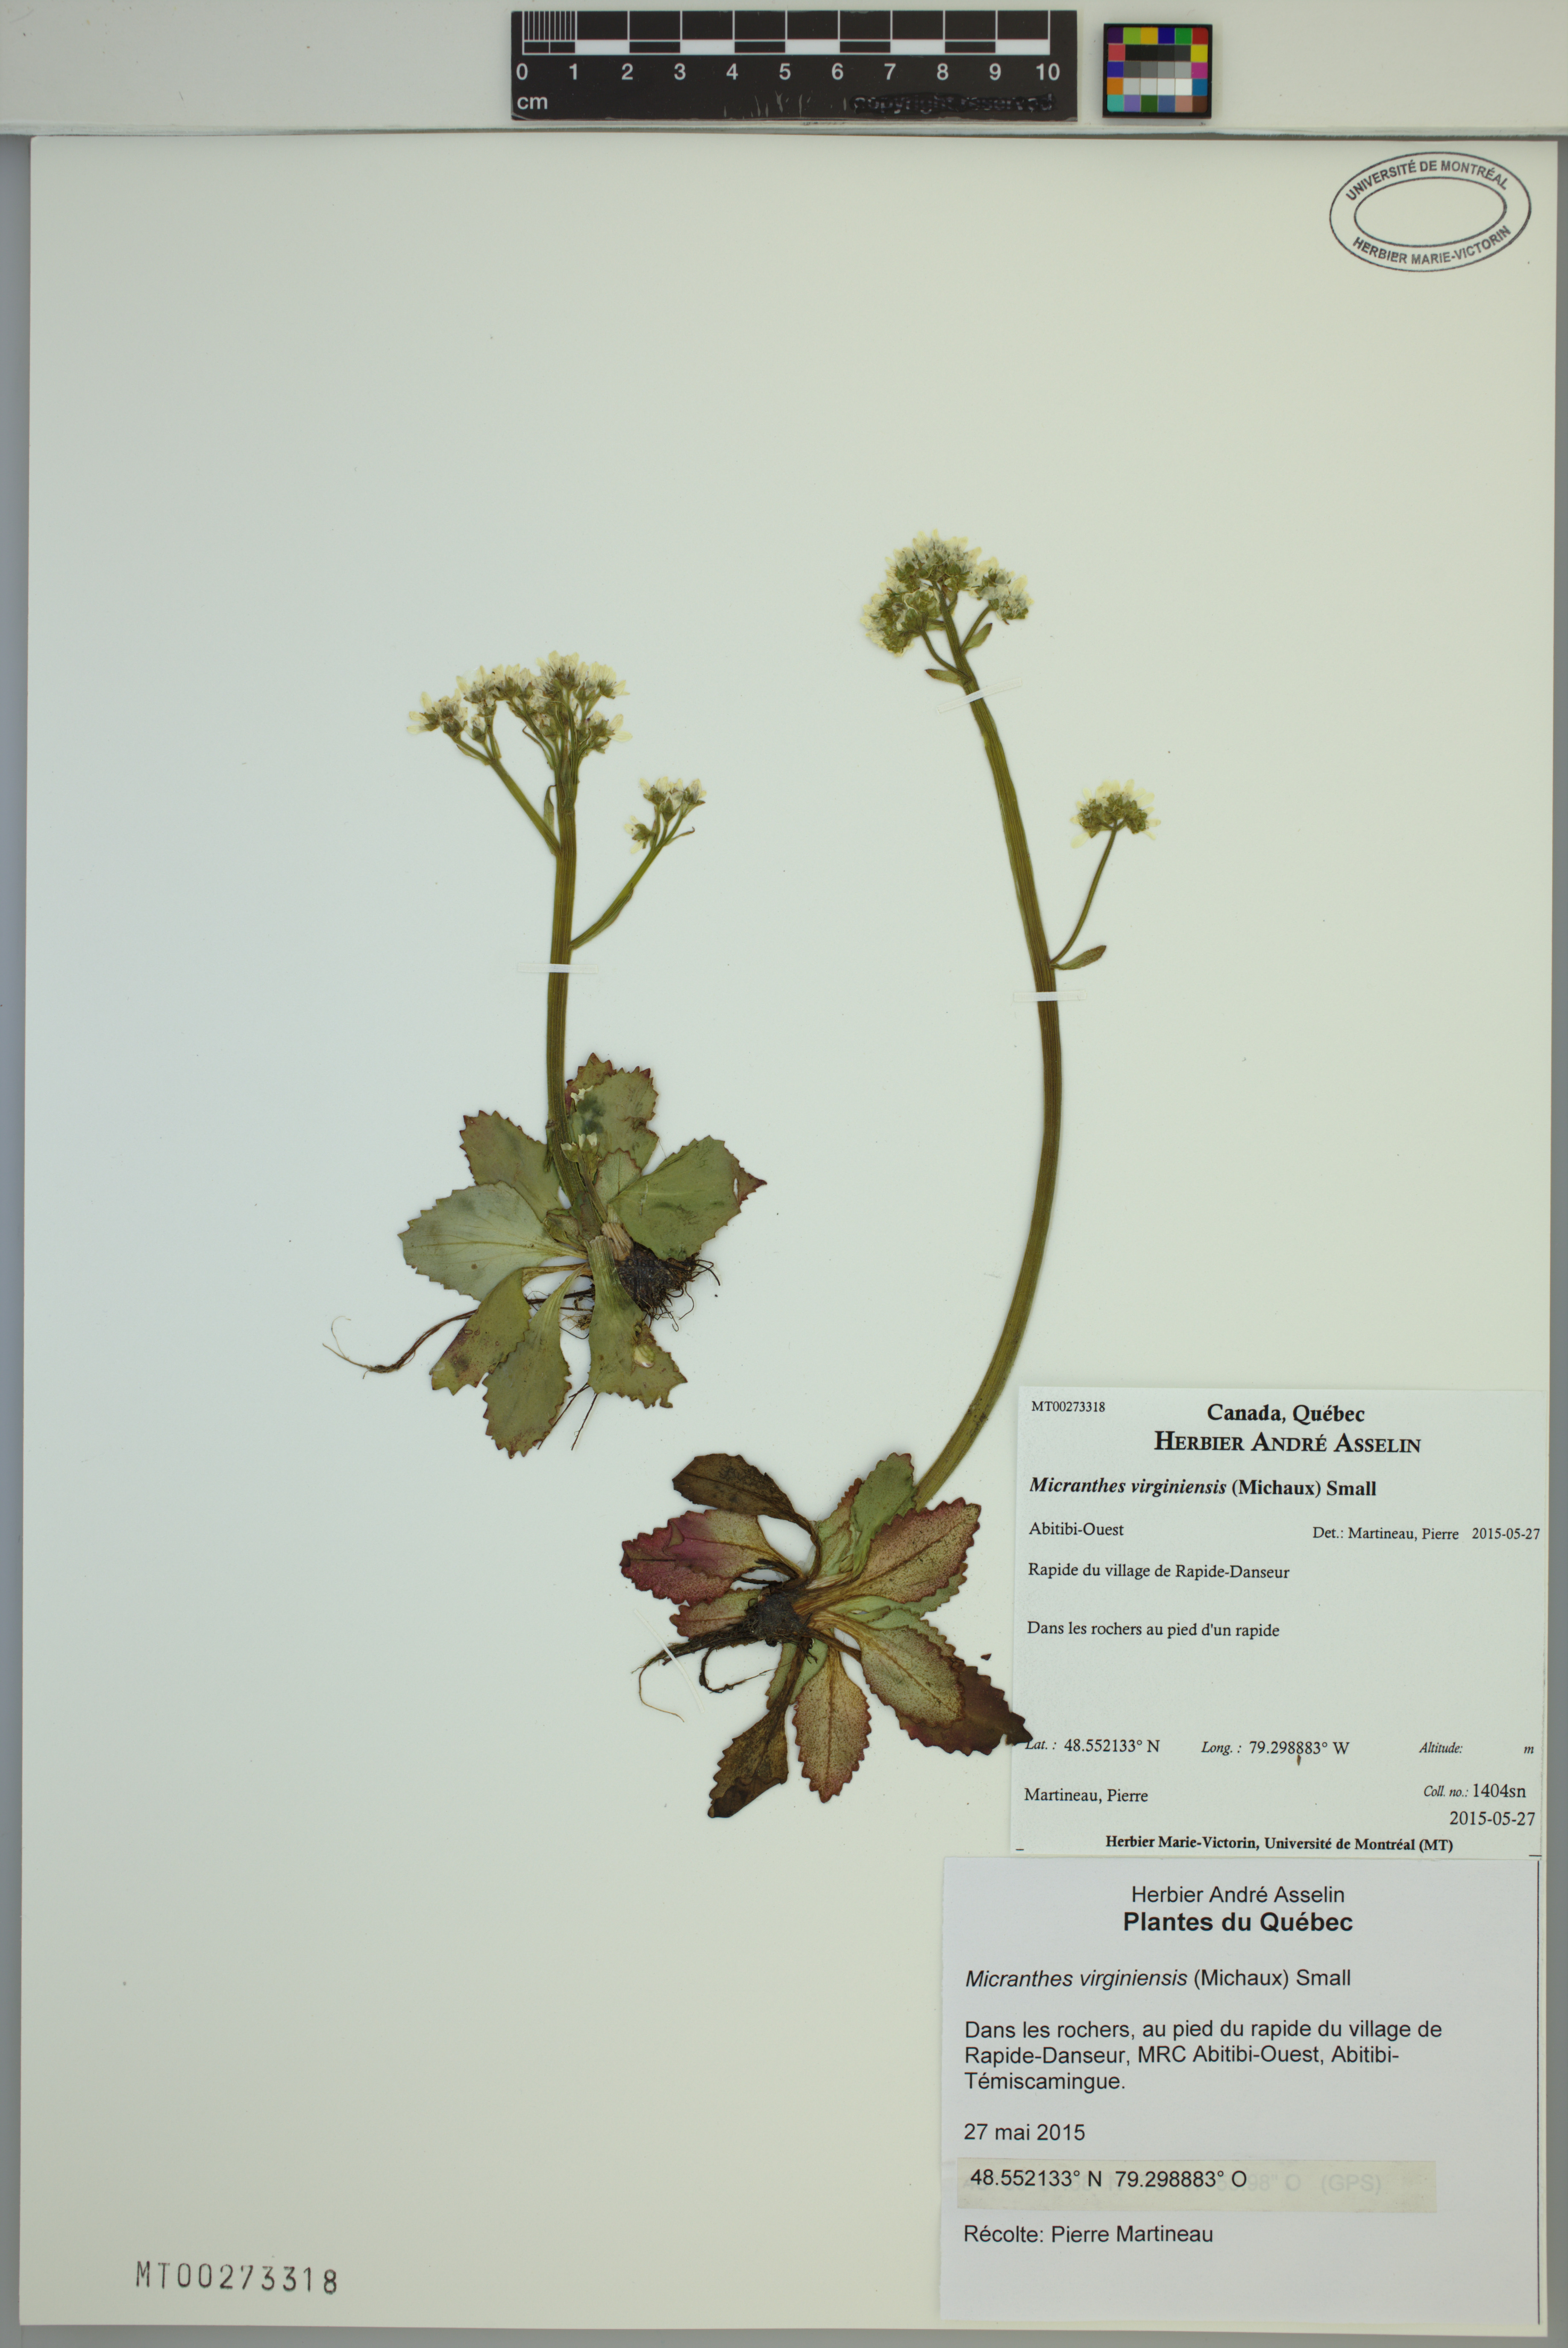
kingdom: Plantae
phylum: Tracheophyta
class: Magnoliopsida
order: Saxifragales
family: Saxifragaceae
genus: Micranthes
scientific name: Micranthes virginiensis
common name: Early saxifrage
